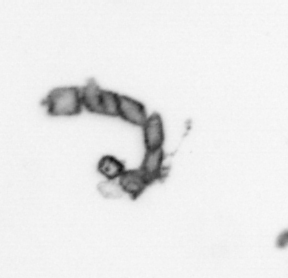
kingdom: Chromista
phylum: Ochrophyta
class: Bacillariophyceae
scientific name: Bacillariophyceae
